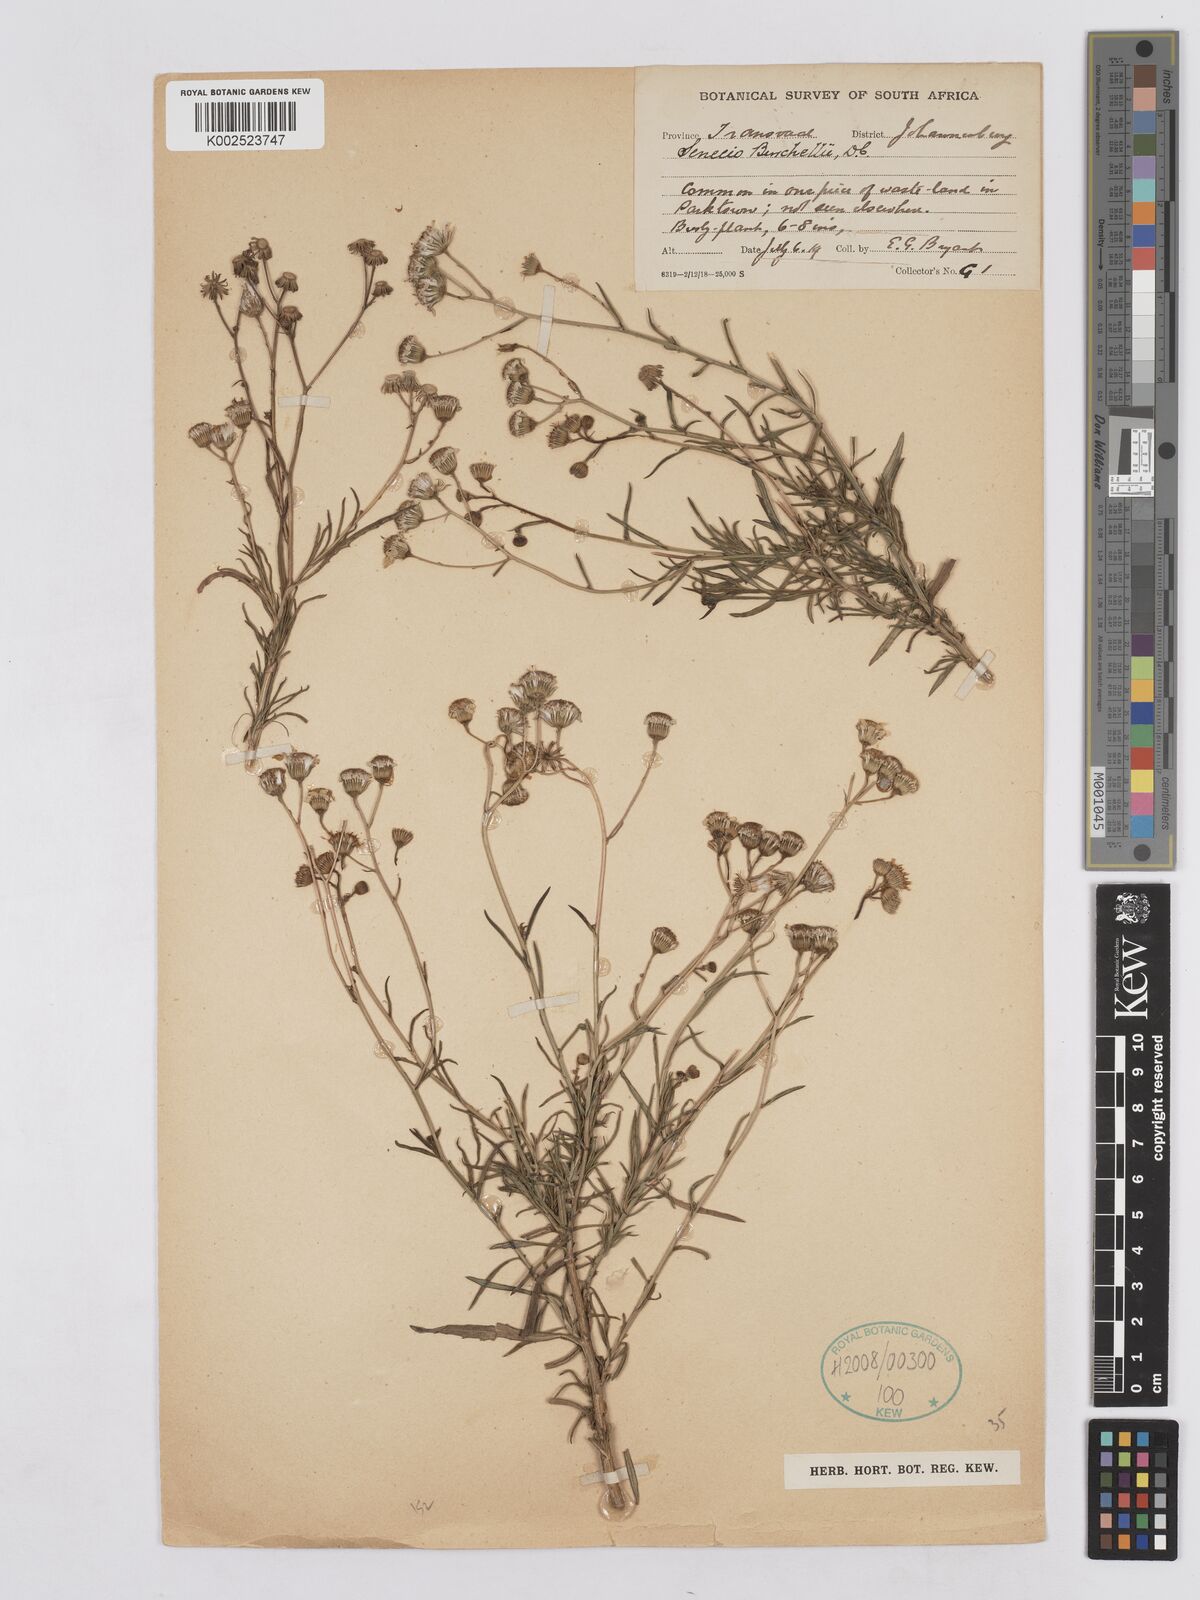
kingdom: Plantae
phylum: Tracheophyta
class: Magnoliopsida
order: Asterales
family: Asteraceae
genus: Senecio
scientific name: Senecio burchellii
